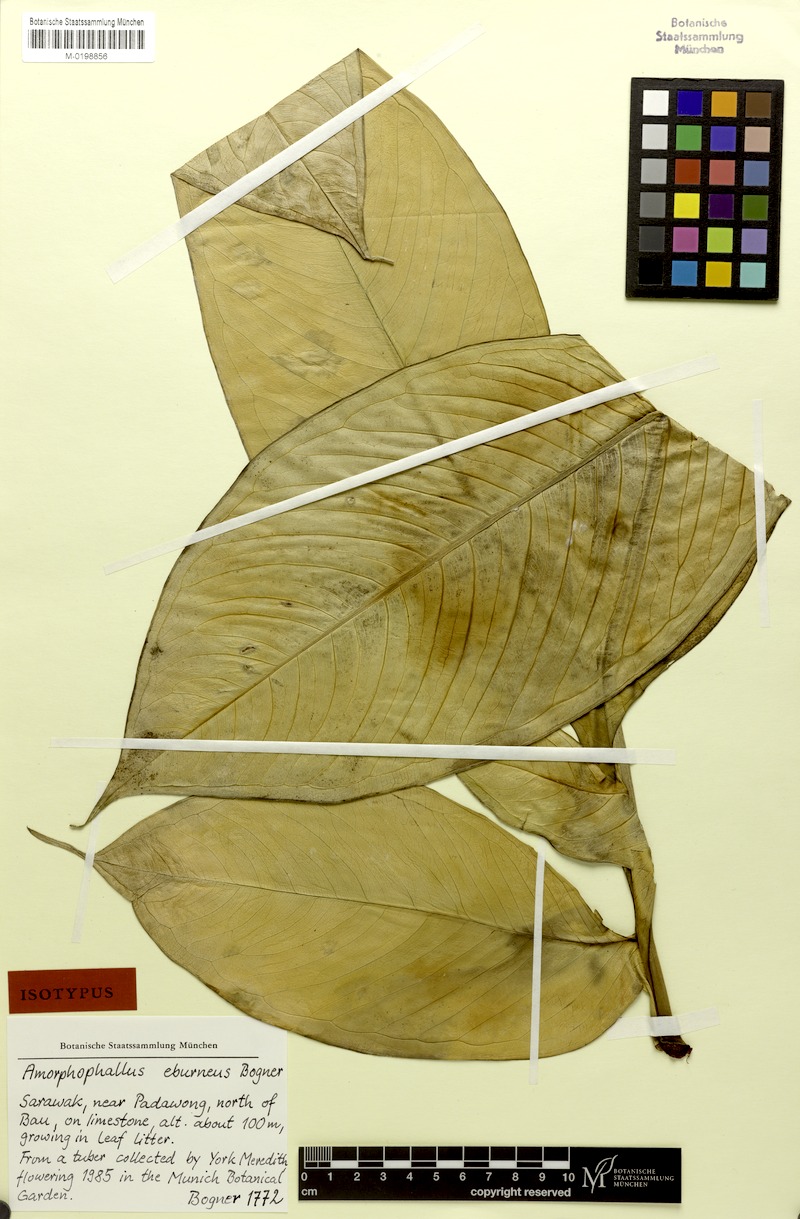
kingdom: Plantae
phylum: Tracheophyta
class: Liliopsida
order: Alismatales
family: Araceae
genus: Amorphophallus
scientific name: Amorphophallus eburneus
